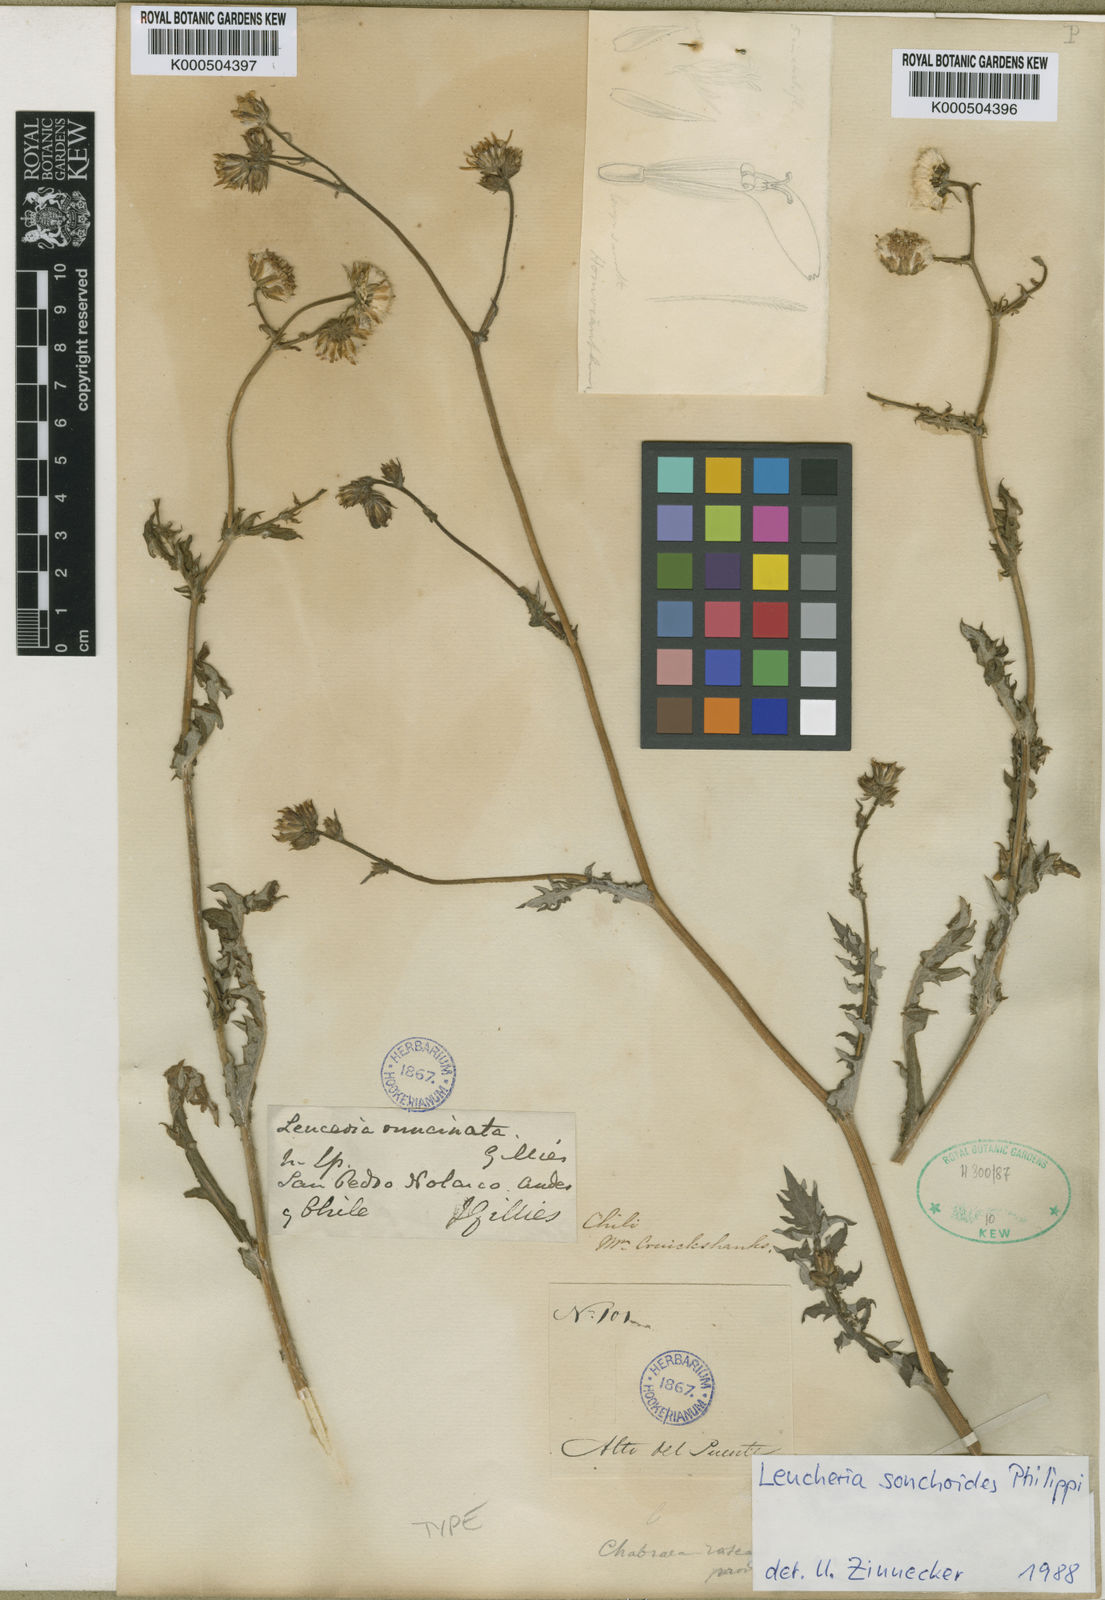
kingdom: Plantae
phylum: Tracheophyta
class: Magnoliopsida
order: Asterales
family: Asteraceae
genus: Leucheria
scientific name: Leucheria congesta
